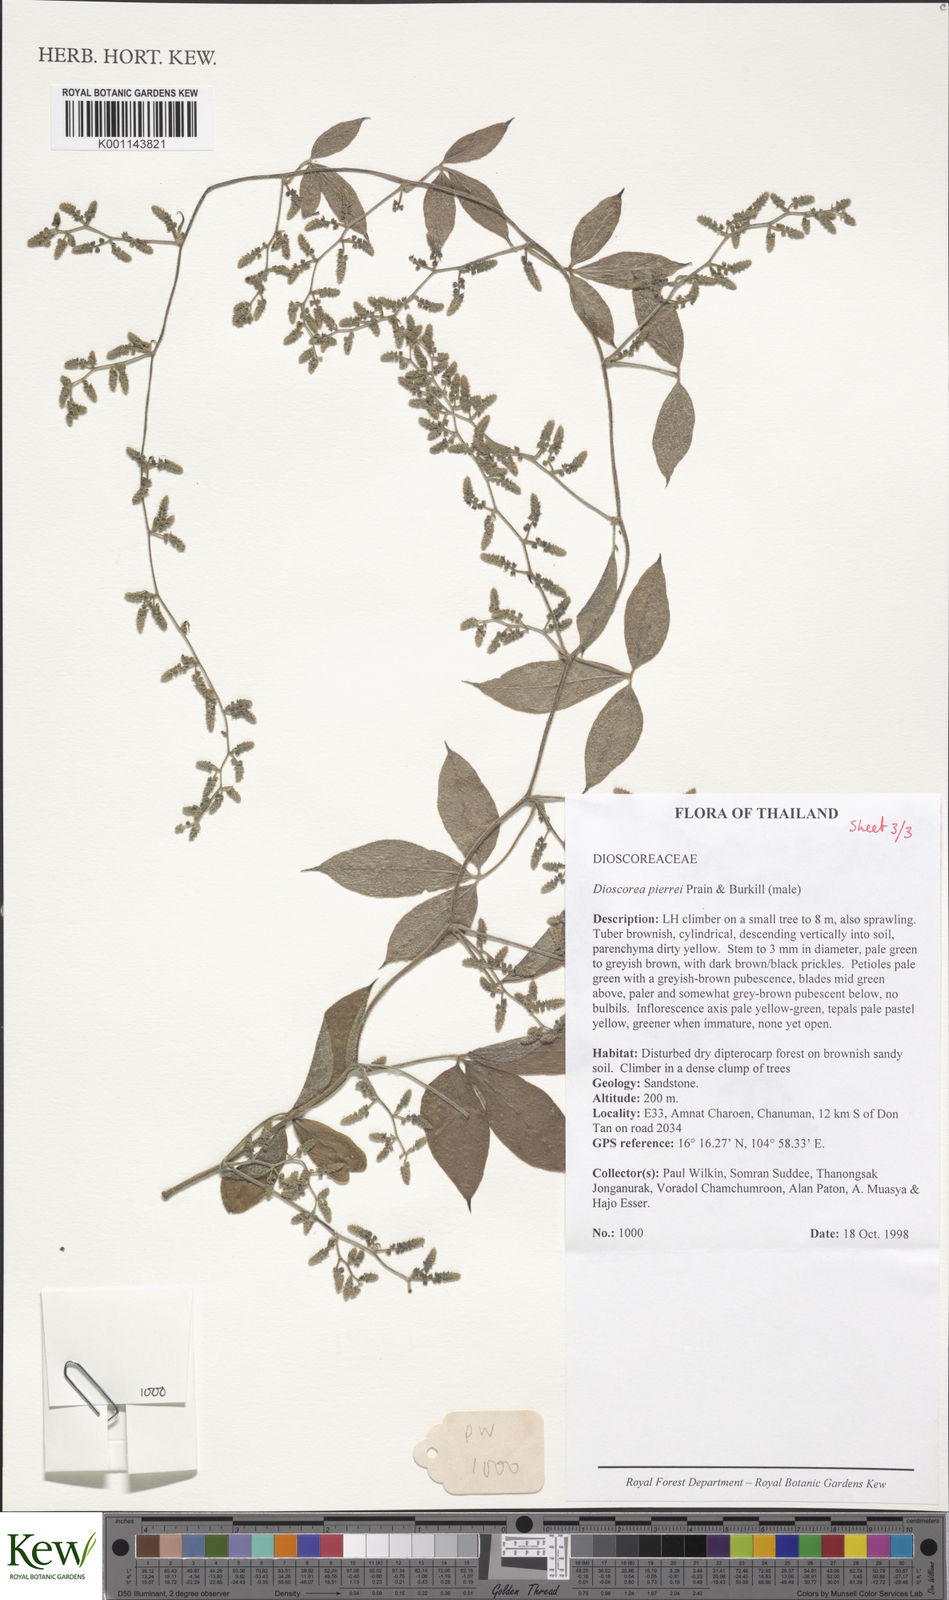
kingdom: Plantae
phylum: Tracheophyta
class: Liliopsida
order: Dioscoreales
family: Dioscoreaceae
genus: Dioscorea
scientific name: Dioscorea pierrei
